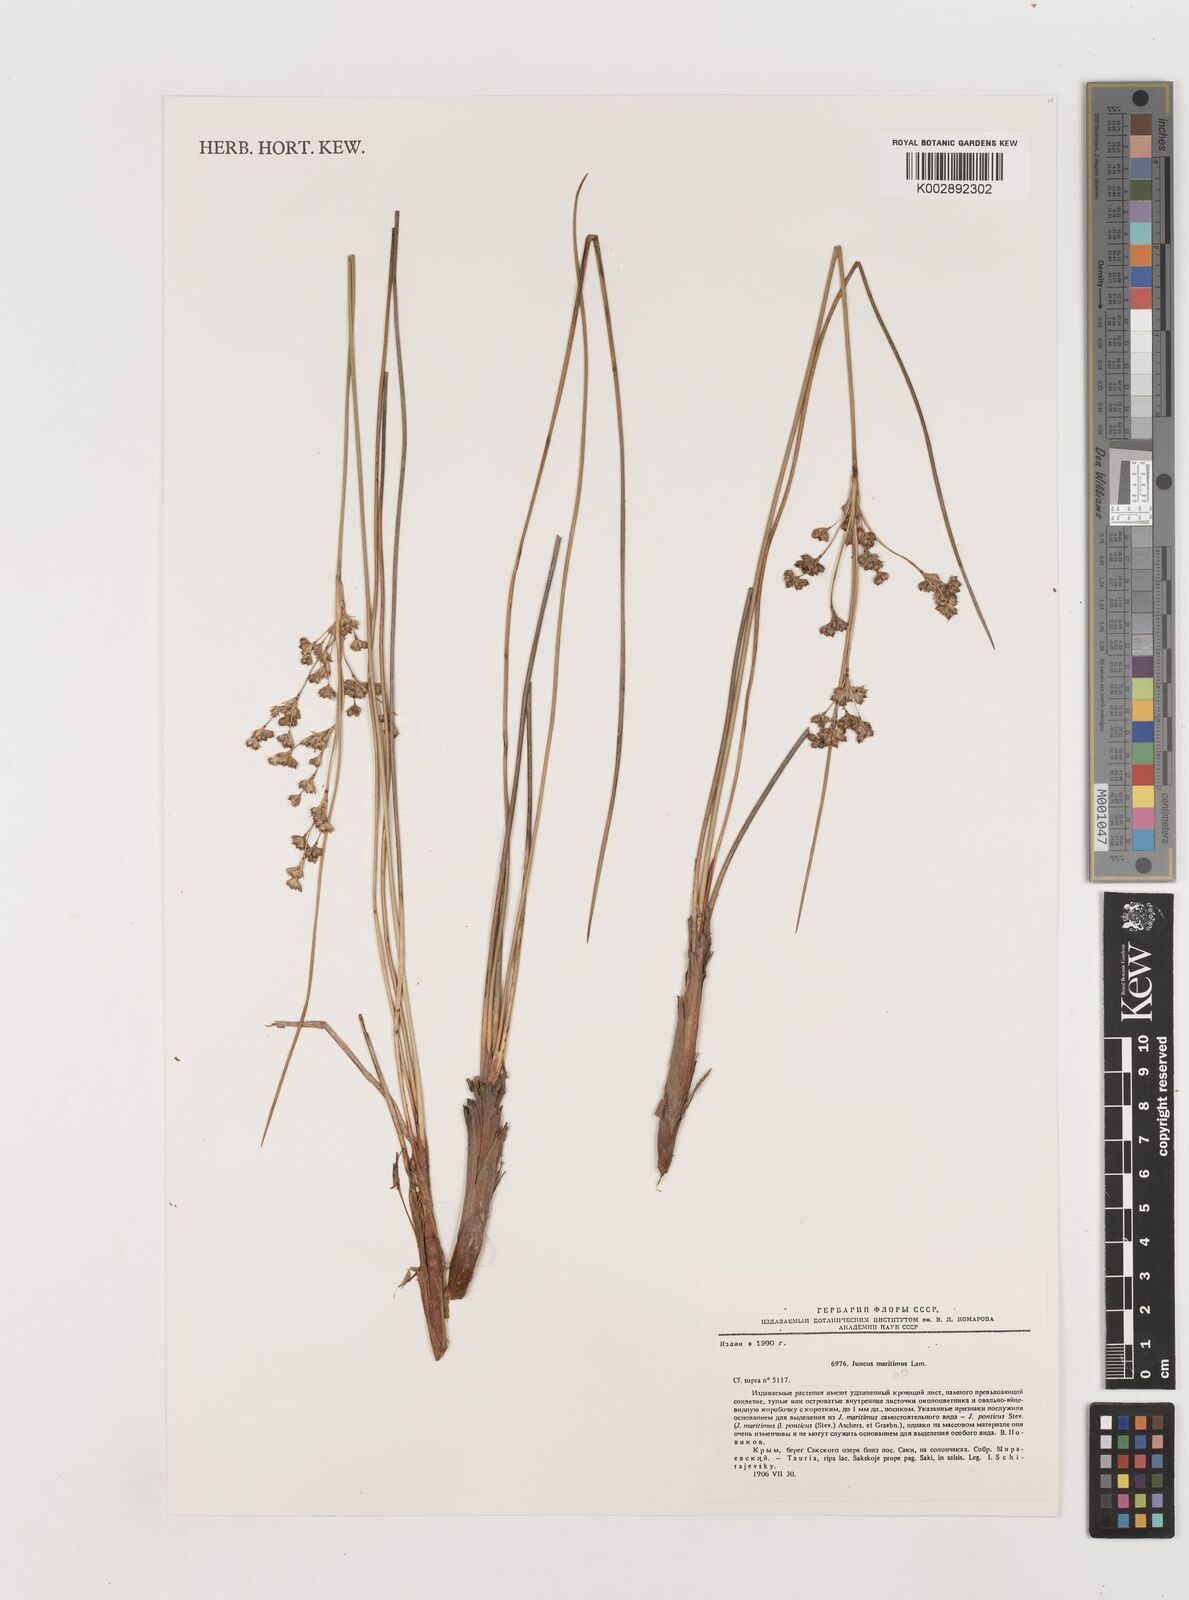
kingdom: Plantae
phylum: Tracheophyta
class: Liliopsida
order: Poales
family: Juncaceae
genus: Juncus
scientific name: Juncus maritimus
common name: Sea rush
